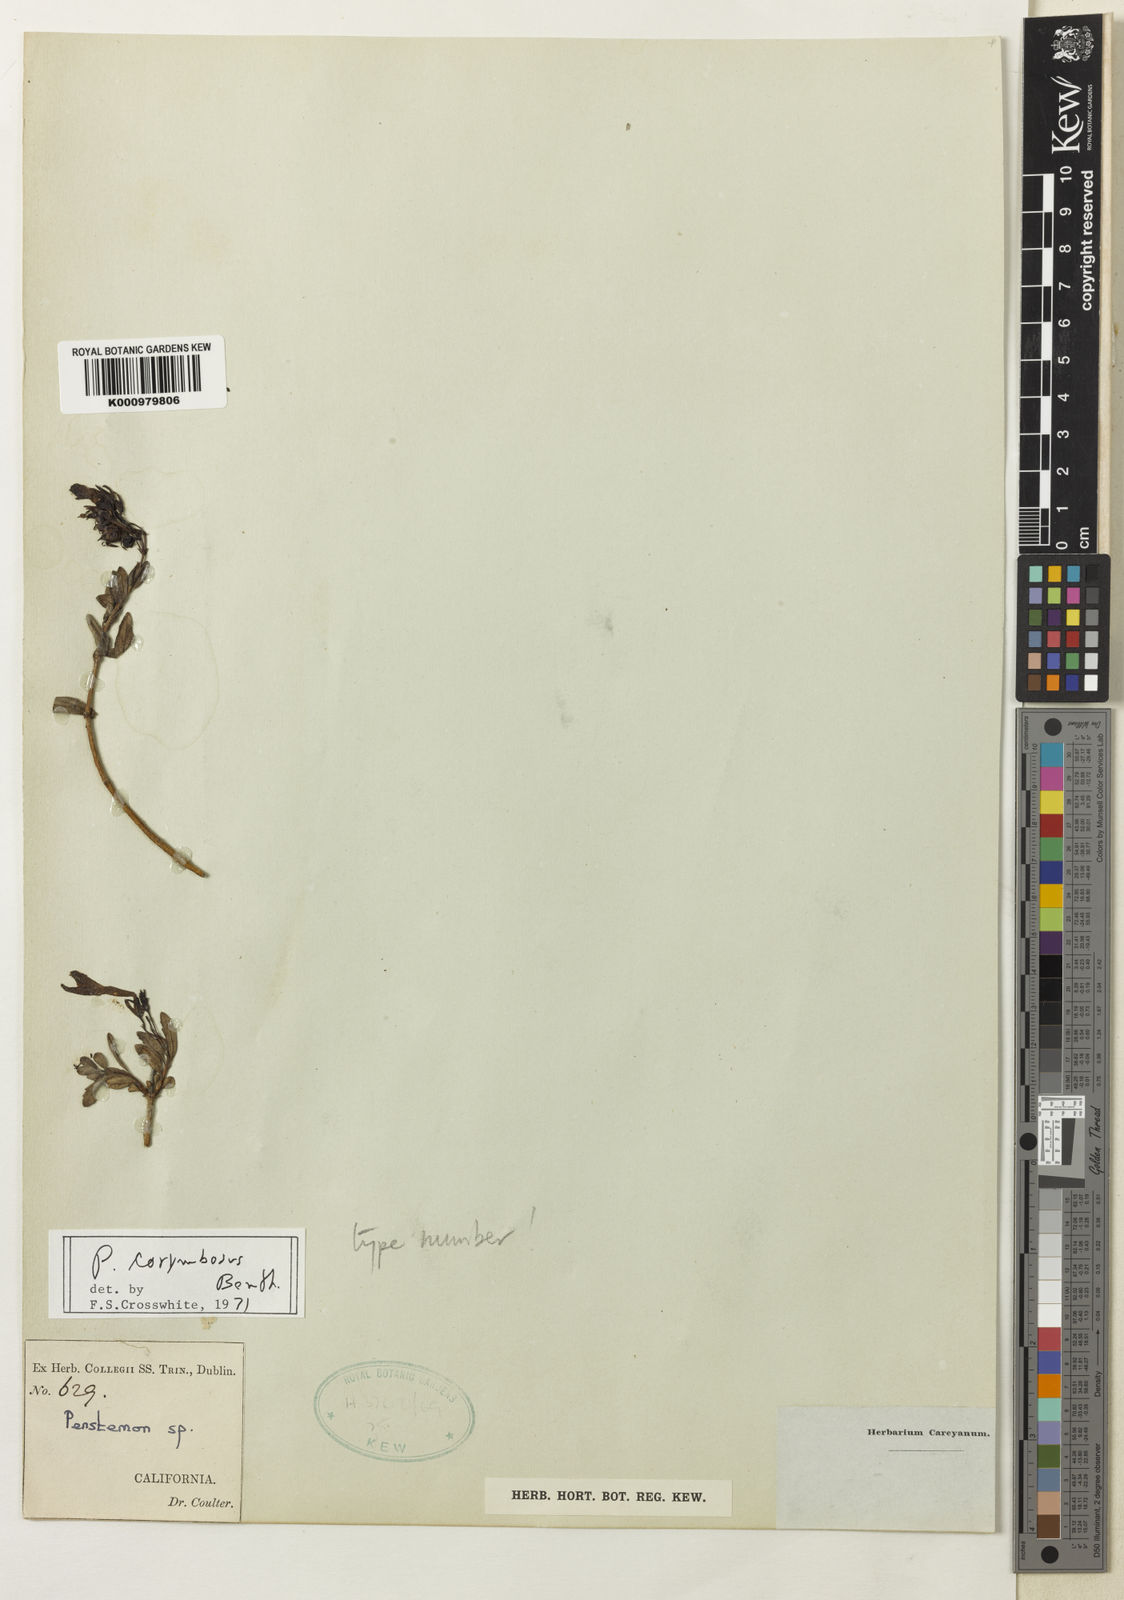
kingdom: Plantae
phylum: Tracheophyta
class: Magnoliopsida
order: Lamiales
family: Plantaginaceae
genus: Keckiella
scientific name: Keckiella corymbosa
